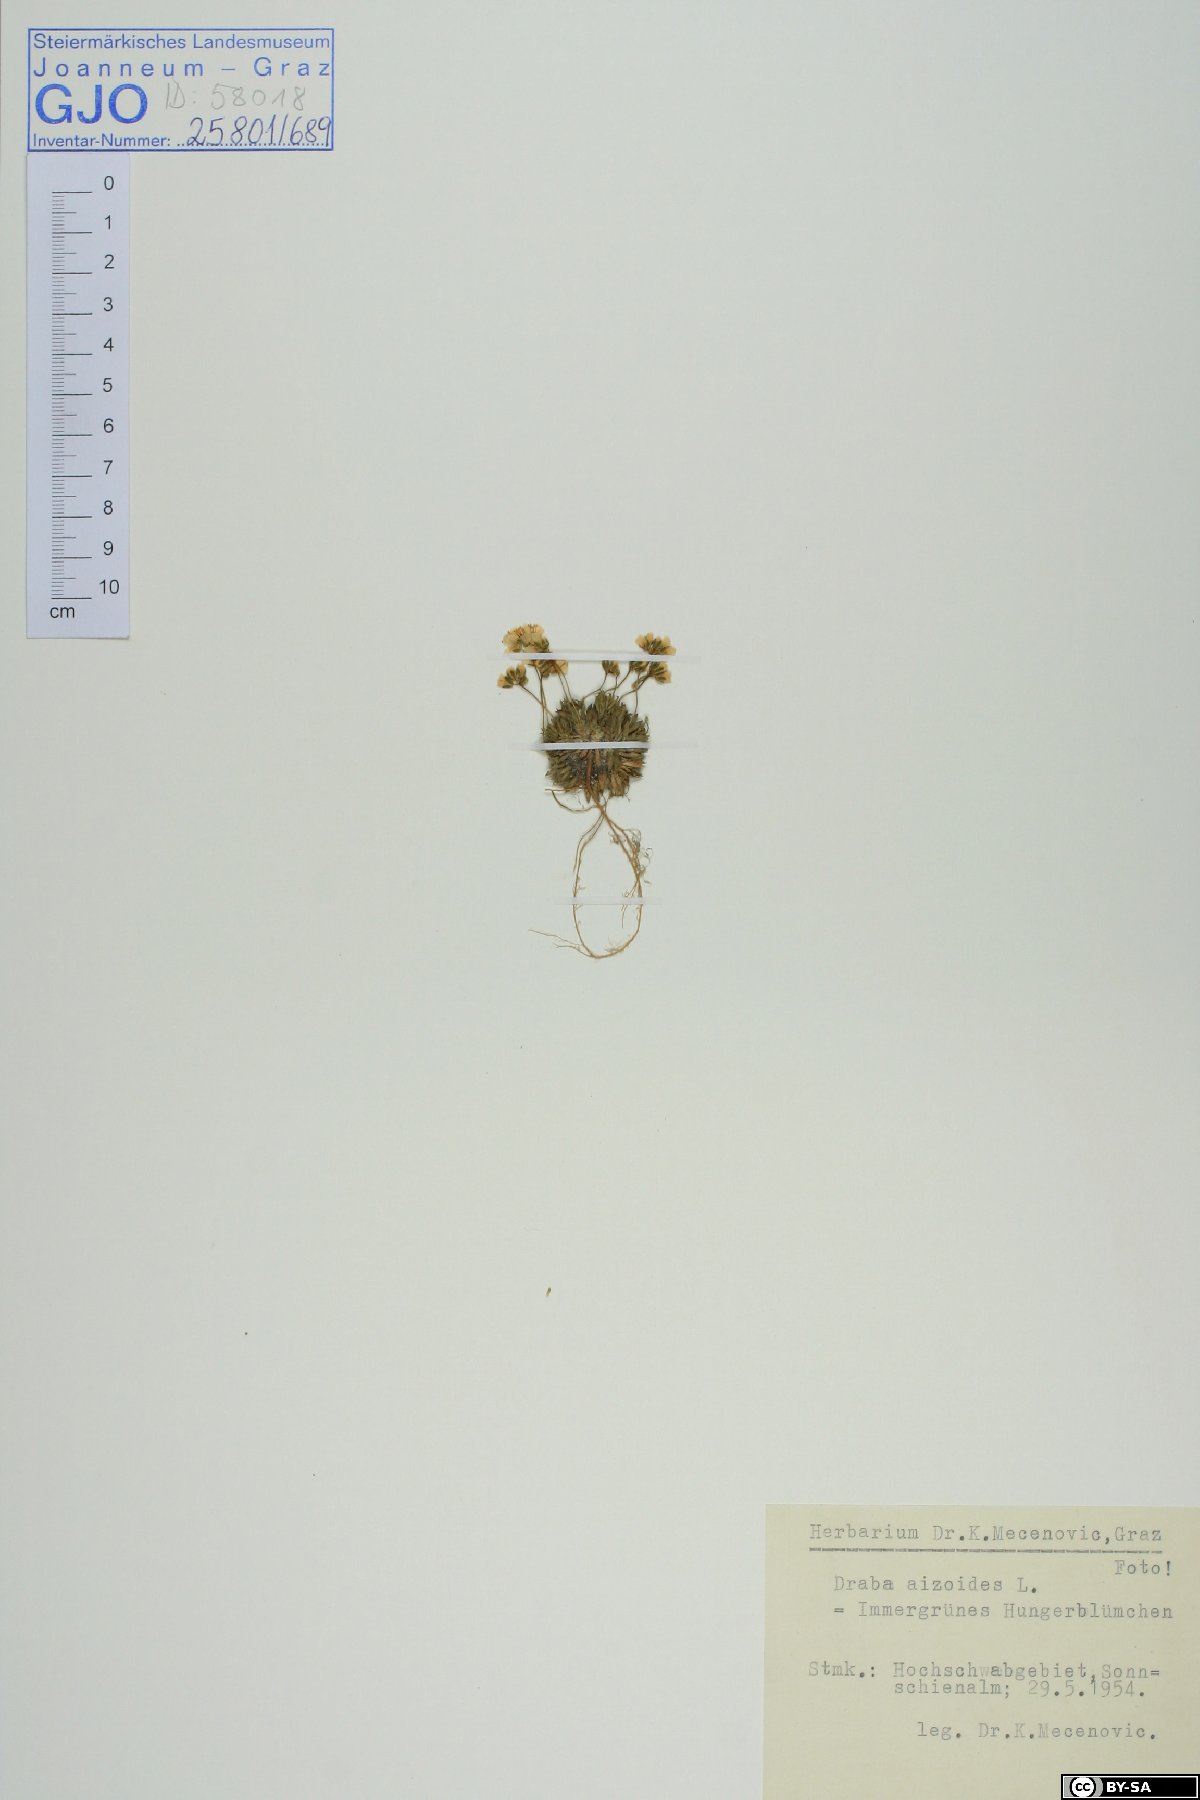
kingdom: Plantae
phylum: Tracheophyta
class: Magnoliopsida
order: Brassicales
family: Brassicaceae
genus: Draba
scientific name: Draba aizoides
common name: Yellow whitlowgrass
